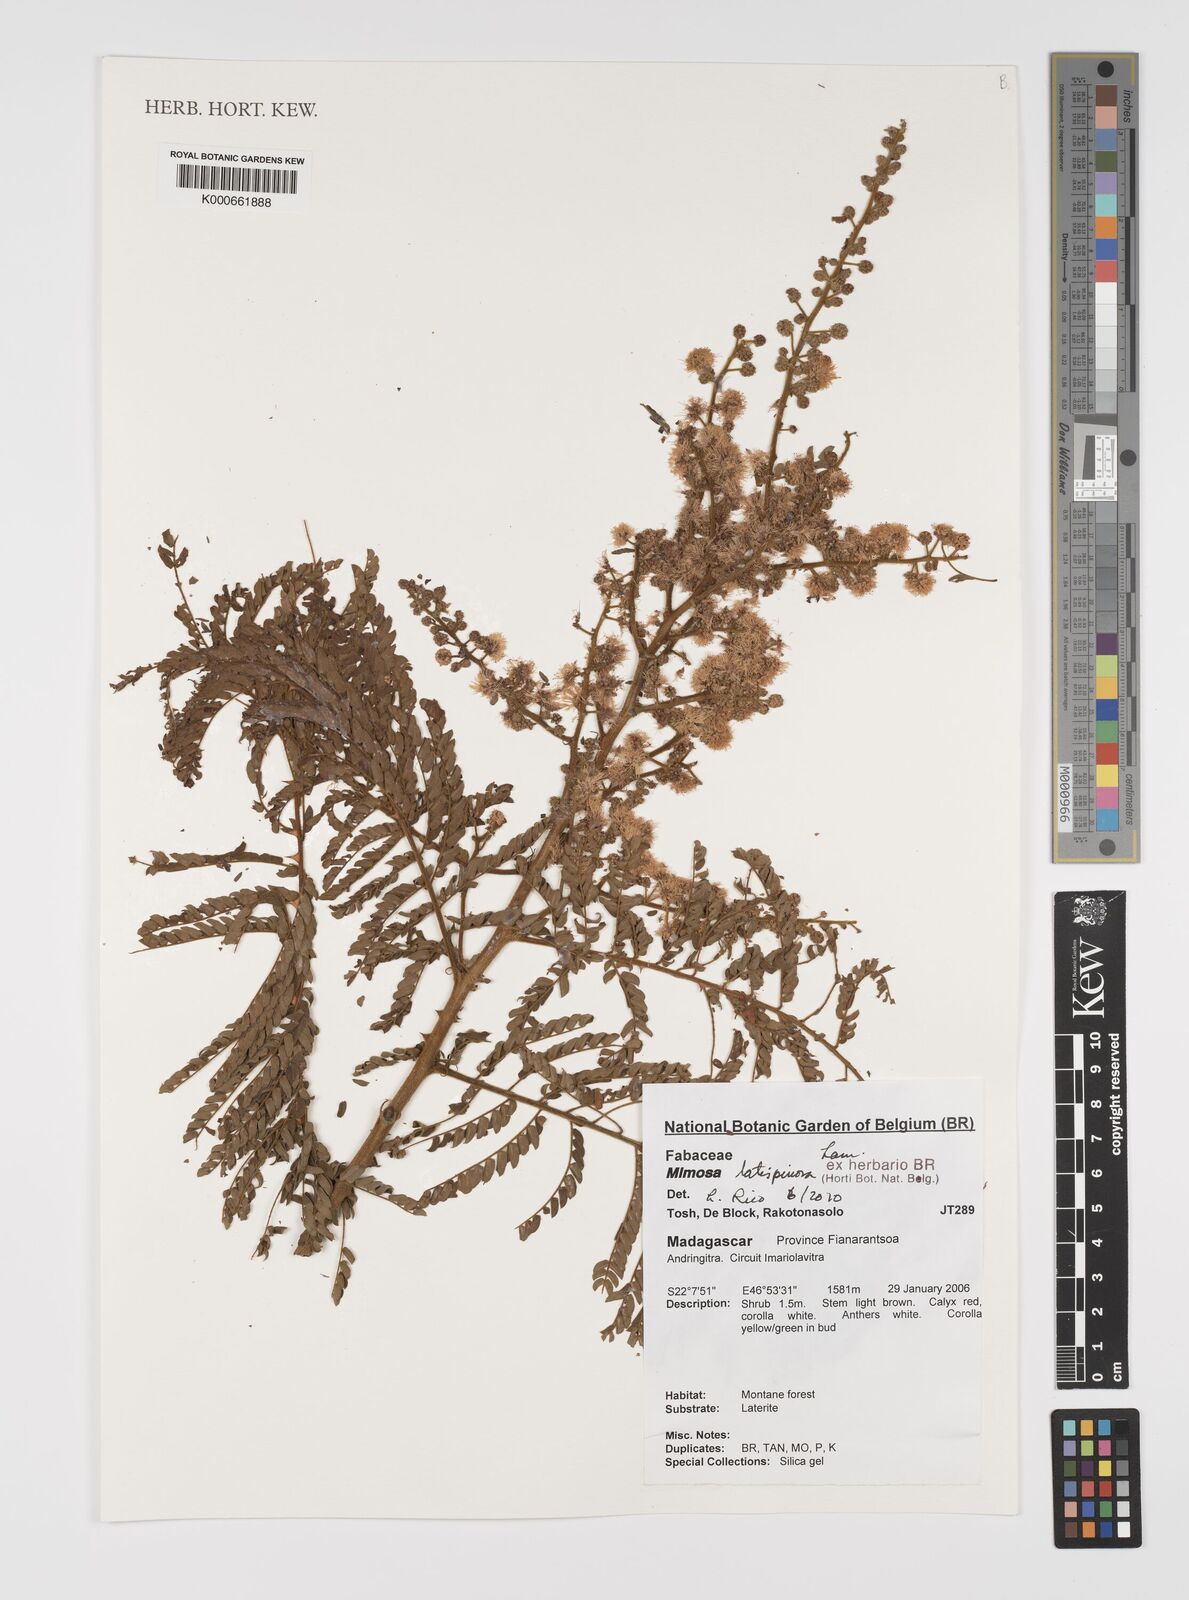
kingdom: Plantae
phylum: Tracheophyta
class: Magnoliopsida
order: Fabales
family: Fabaceae
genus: Mimosa
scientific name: Mimosa latispinosa
